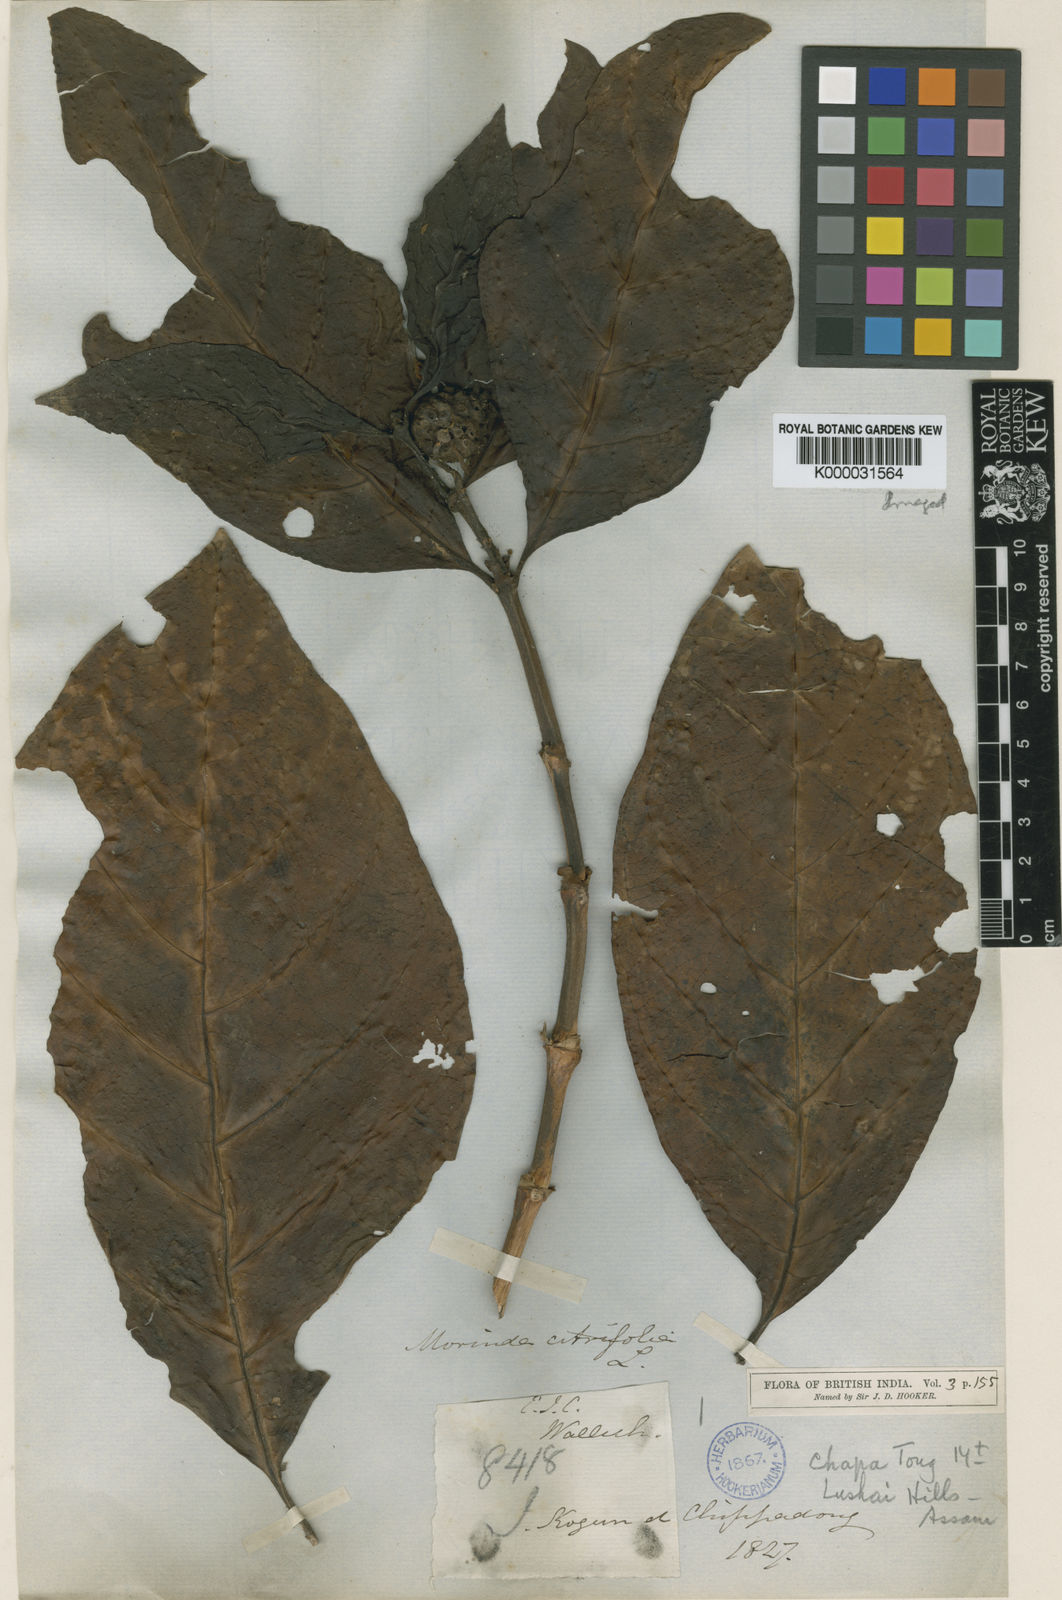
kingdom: Plantae
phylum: Tracheophyta
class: Magnoliopsida
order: Gentianales
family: Rubiaceae
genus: Morinda
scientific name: Morinda citrifolia
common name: Indian-mulberry
